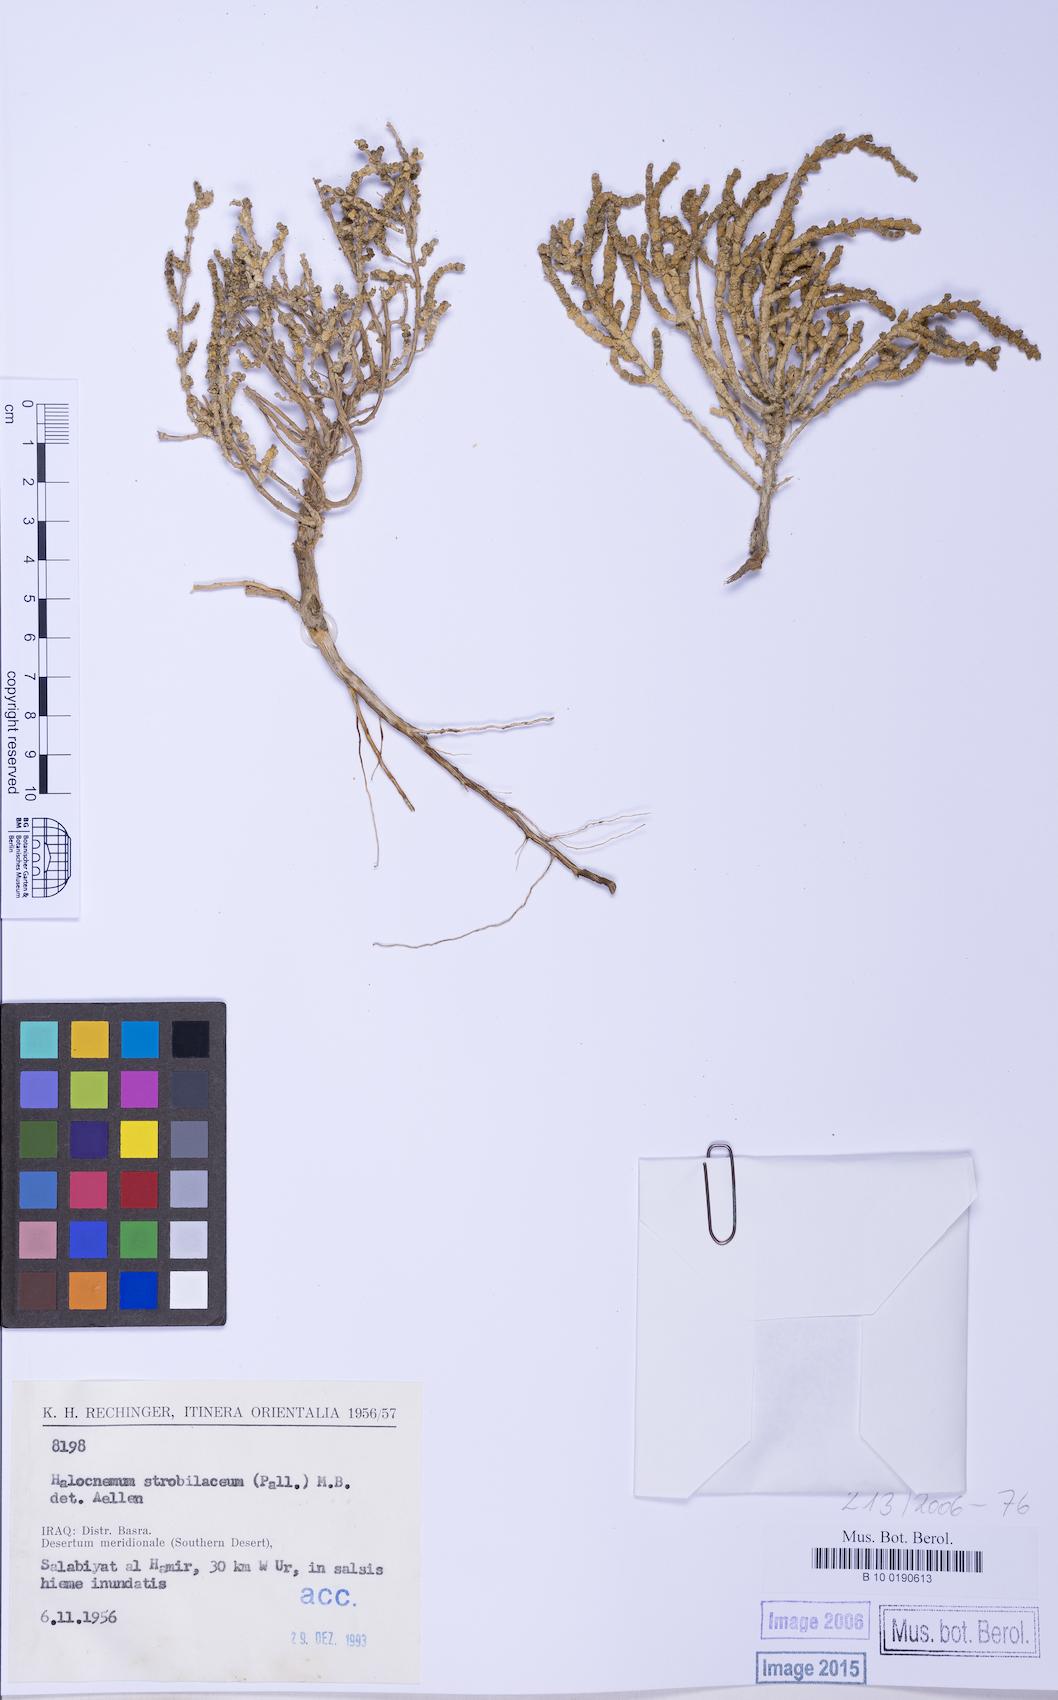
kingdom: Plantae
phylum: Tracheophyta
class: Magnoliopsida
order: Caryophyllales
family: Amaranthaceae
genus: Halocnemum
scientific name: Halocnemum strobilaceum
